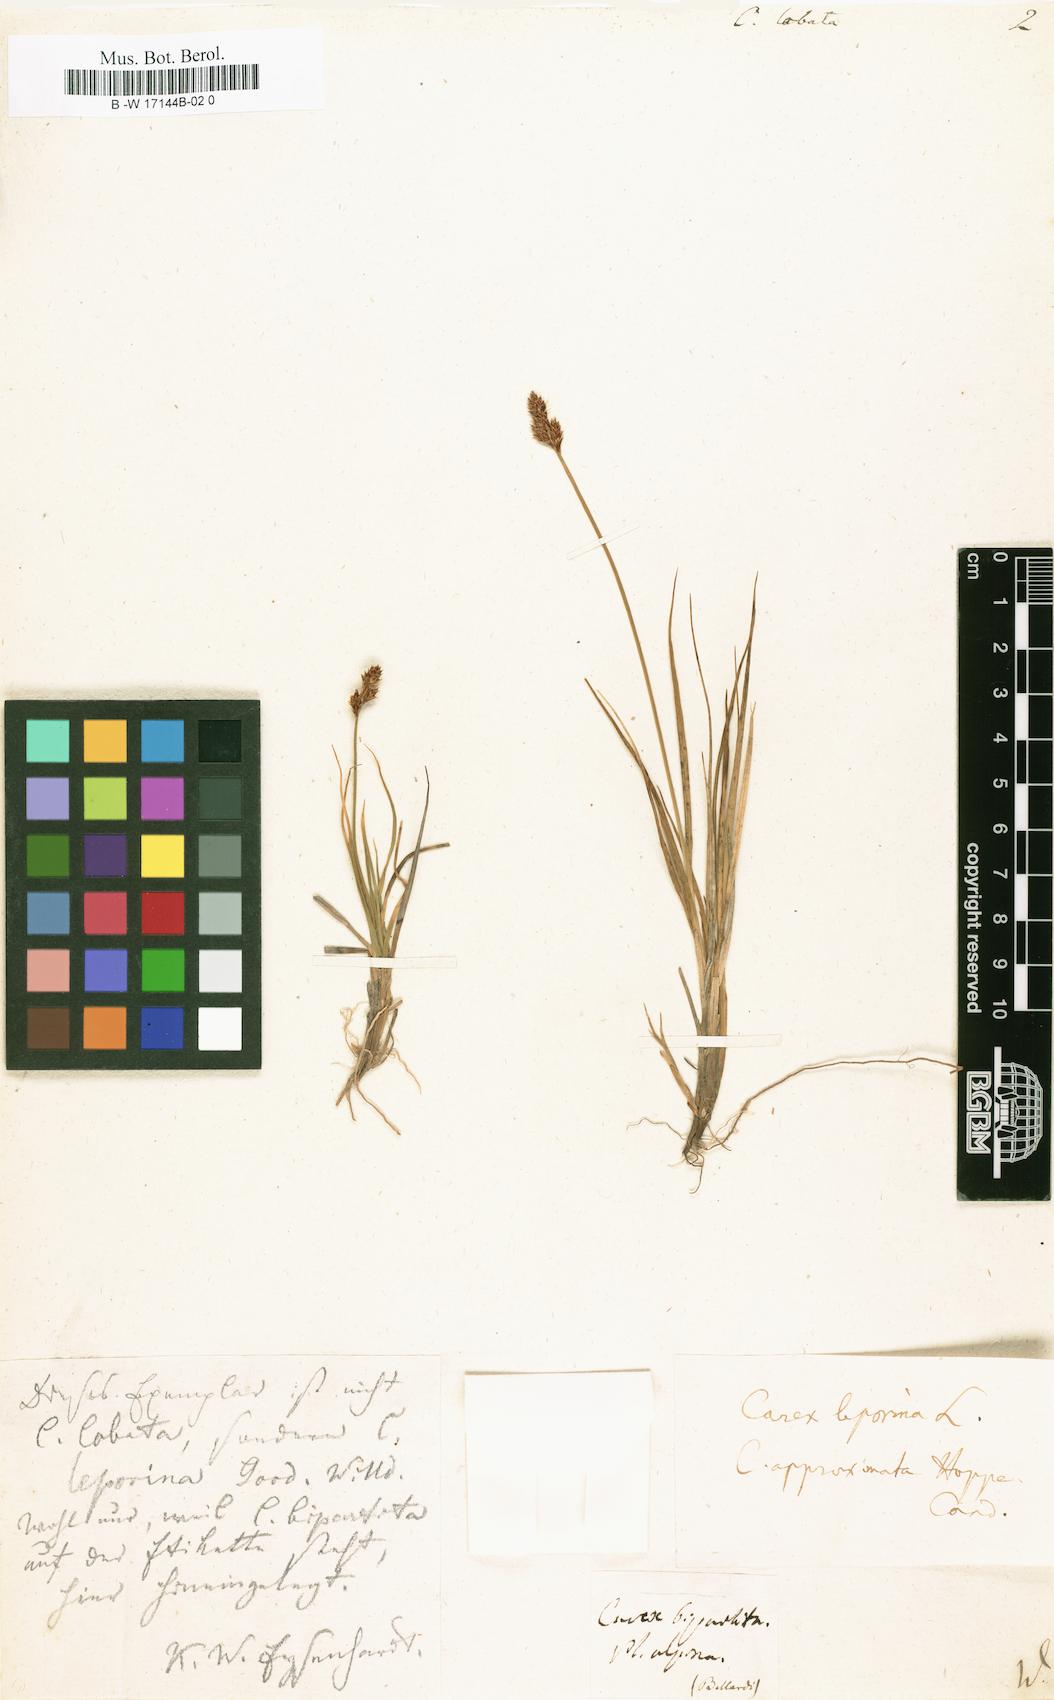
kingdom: Plantae
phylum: Tracheophyta
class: Liliopsida
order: Poales
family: Cyperaceae
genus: Carex
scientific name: Carex foetida
